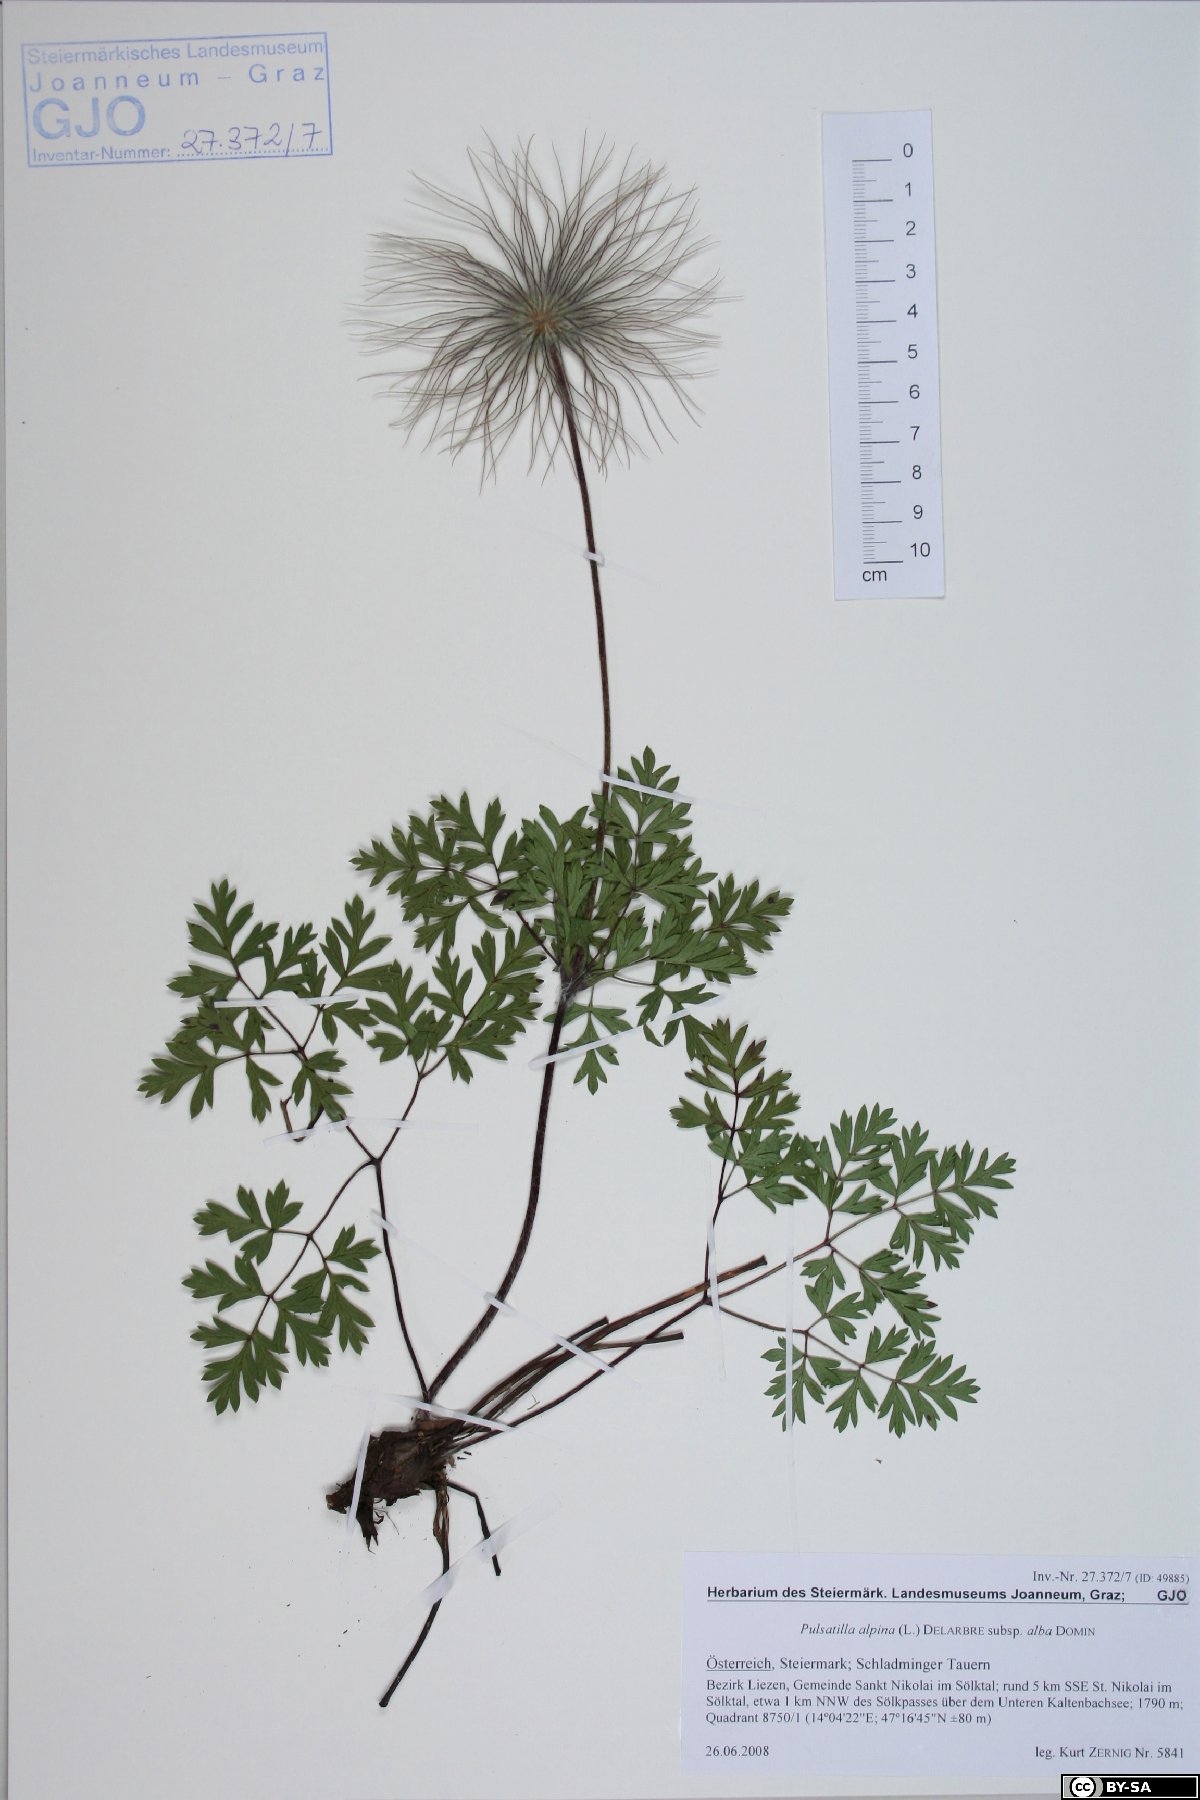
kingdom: Plantae
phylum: Tracheophyta
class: Magnoliopsida
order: Ranunculales
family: Ranunculaceae
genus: Pulsatilla
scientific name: Pulsatilla alpina
